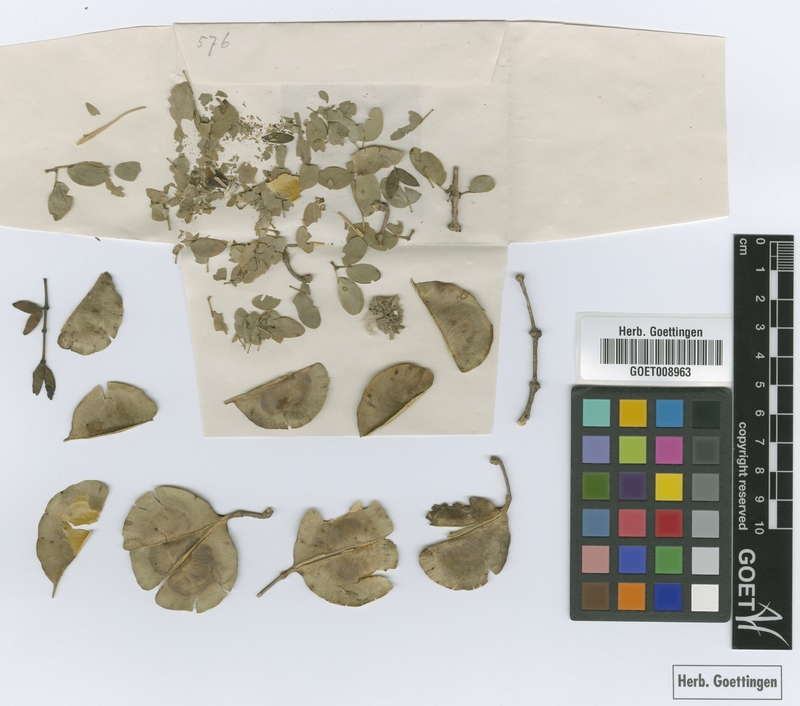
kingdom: Plantae
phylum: Tracheophyta
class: Magnoliopsida
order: Zygophyllales
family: Zygophyllaceae
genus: Gonopterodendron
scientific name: Gonopterodendron sarmientoi
